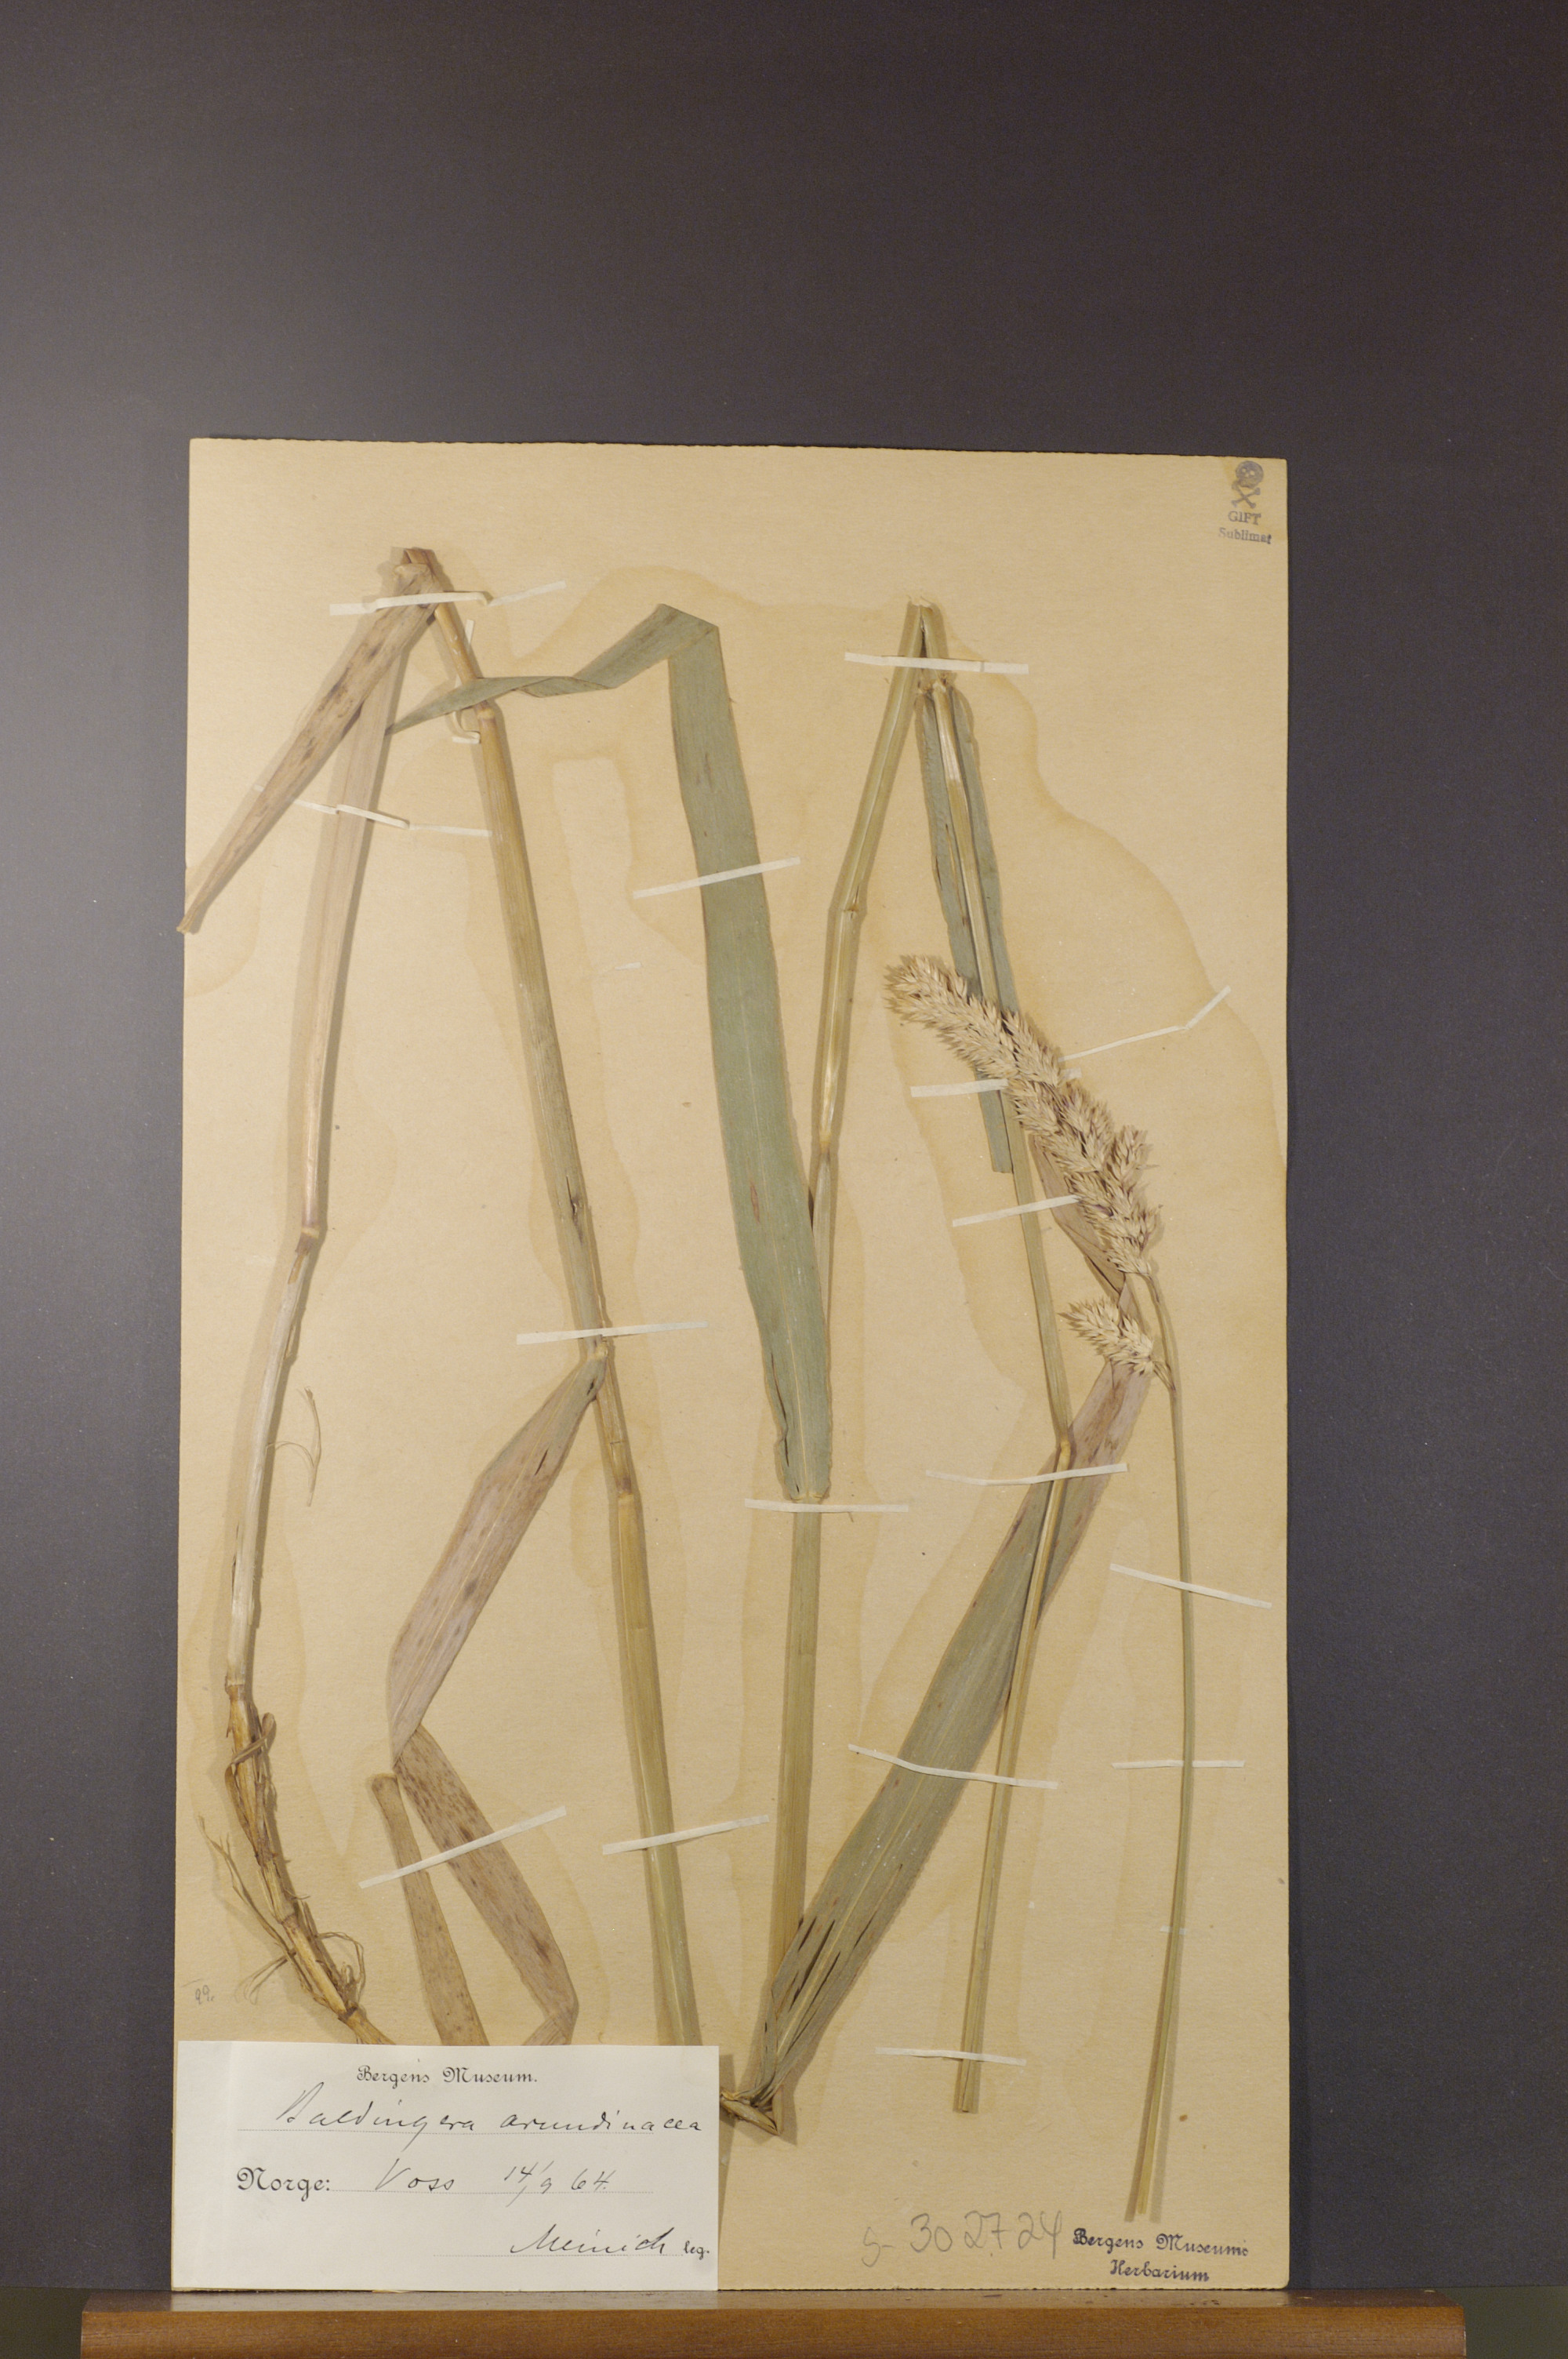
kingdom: Plantae
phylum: Tracheophyta
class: Liliopsida
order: Poales
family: Poaceae
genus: Phalaris
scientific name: Phalaris arundinacea
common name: Reed canary-grass
